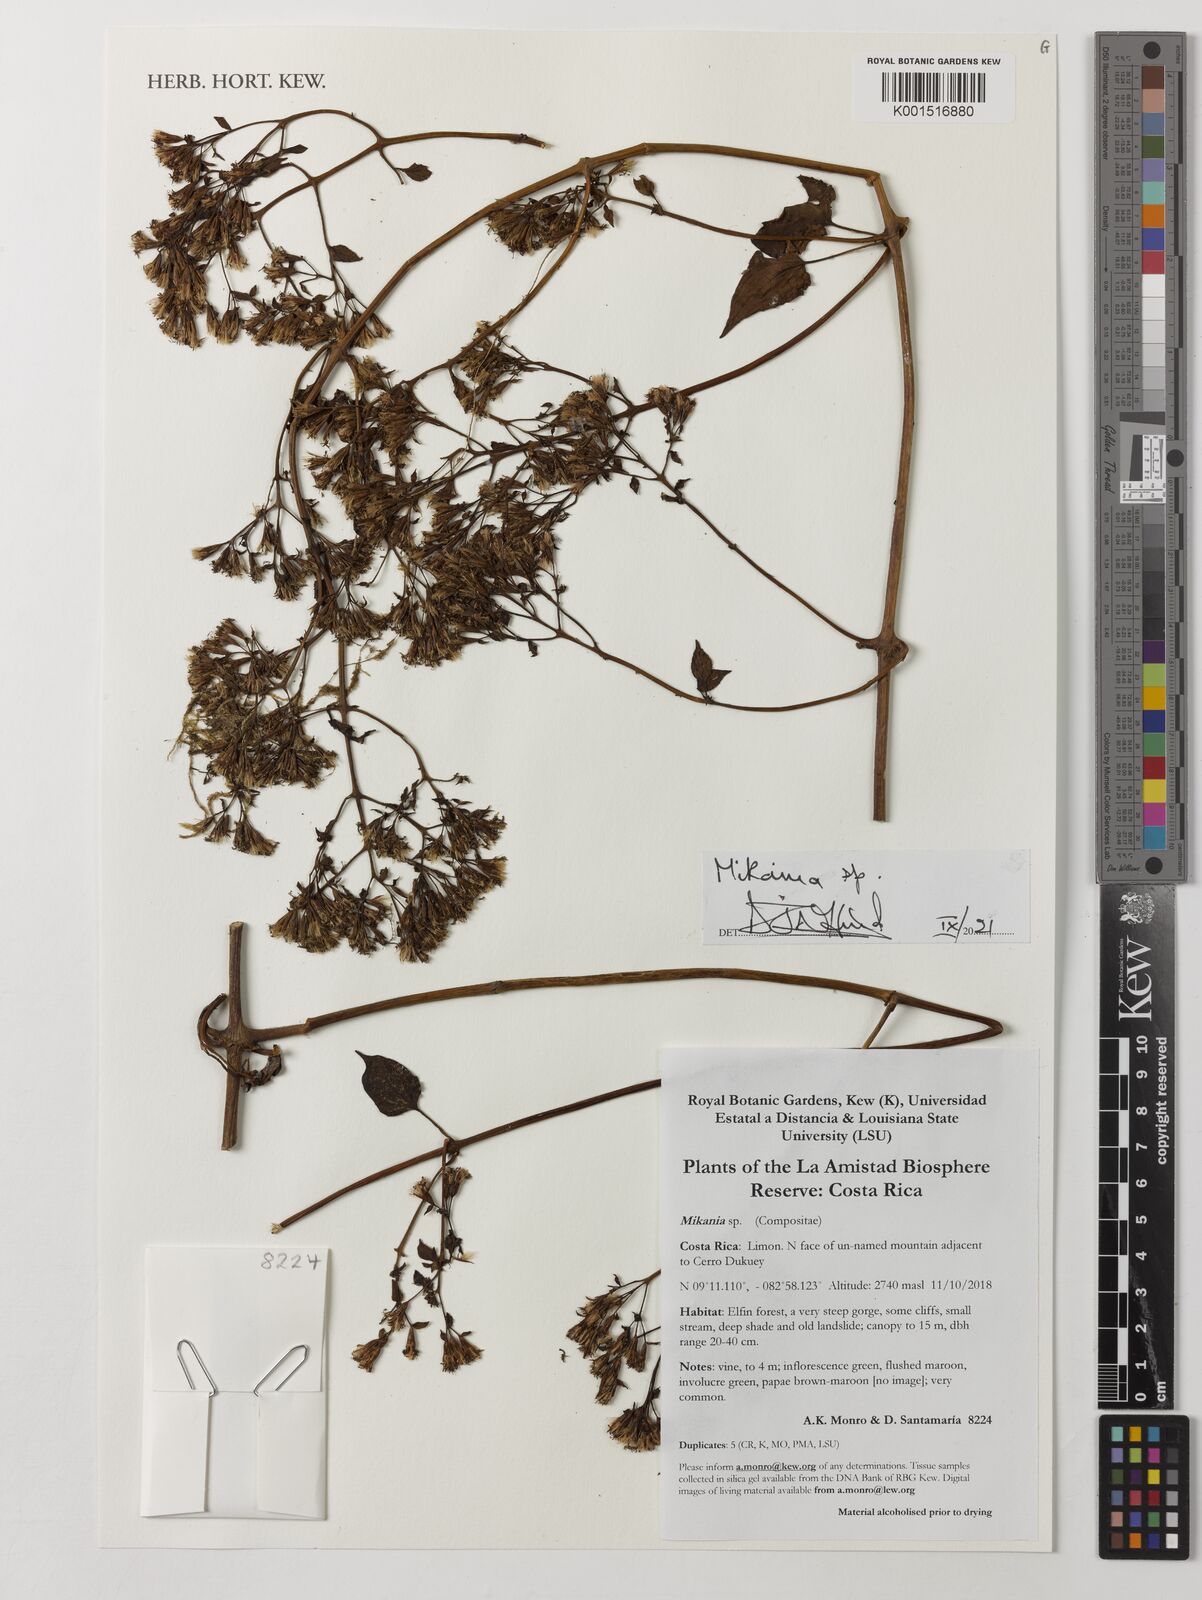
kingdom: Plantae
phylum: Tracheophyta
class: Magnoliopsida
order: Asterales
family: Asteraceae
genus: Mikania
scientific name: Mikania
